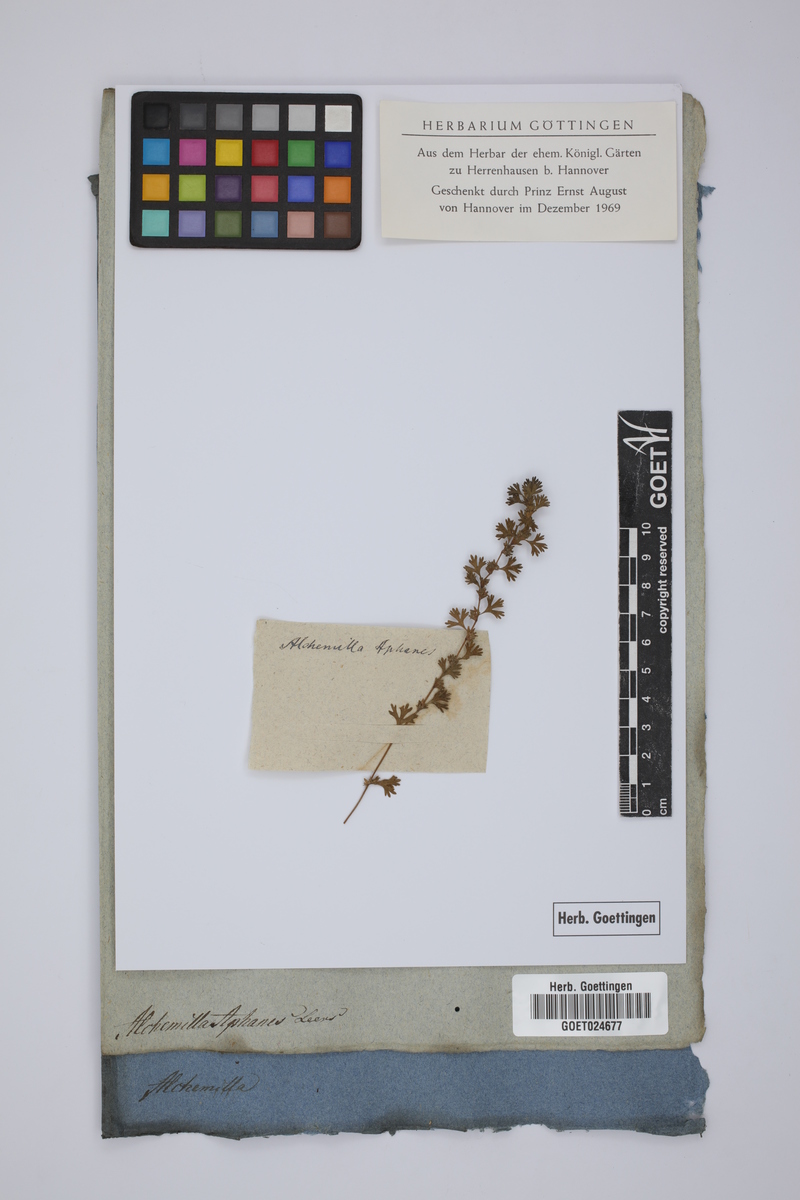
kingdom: Plantae
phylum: Tracheophyta
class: Magnoliopsida
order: Rosales
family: Rosaceae
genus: Aphanes
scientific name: Aphanes arvensis
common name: Parsley-piert
